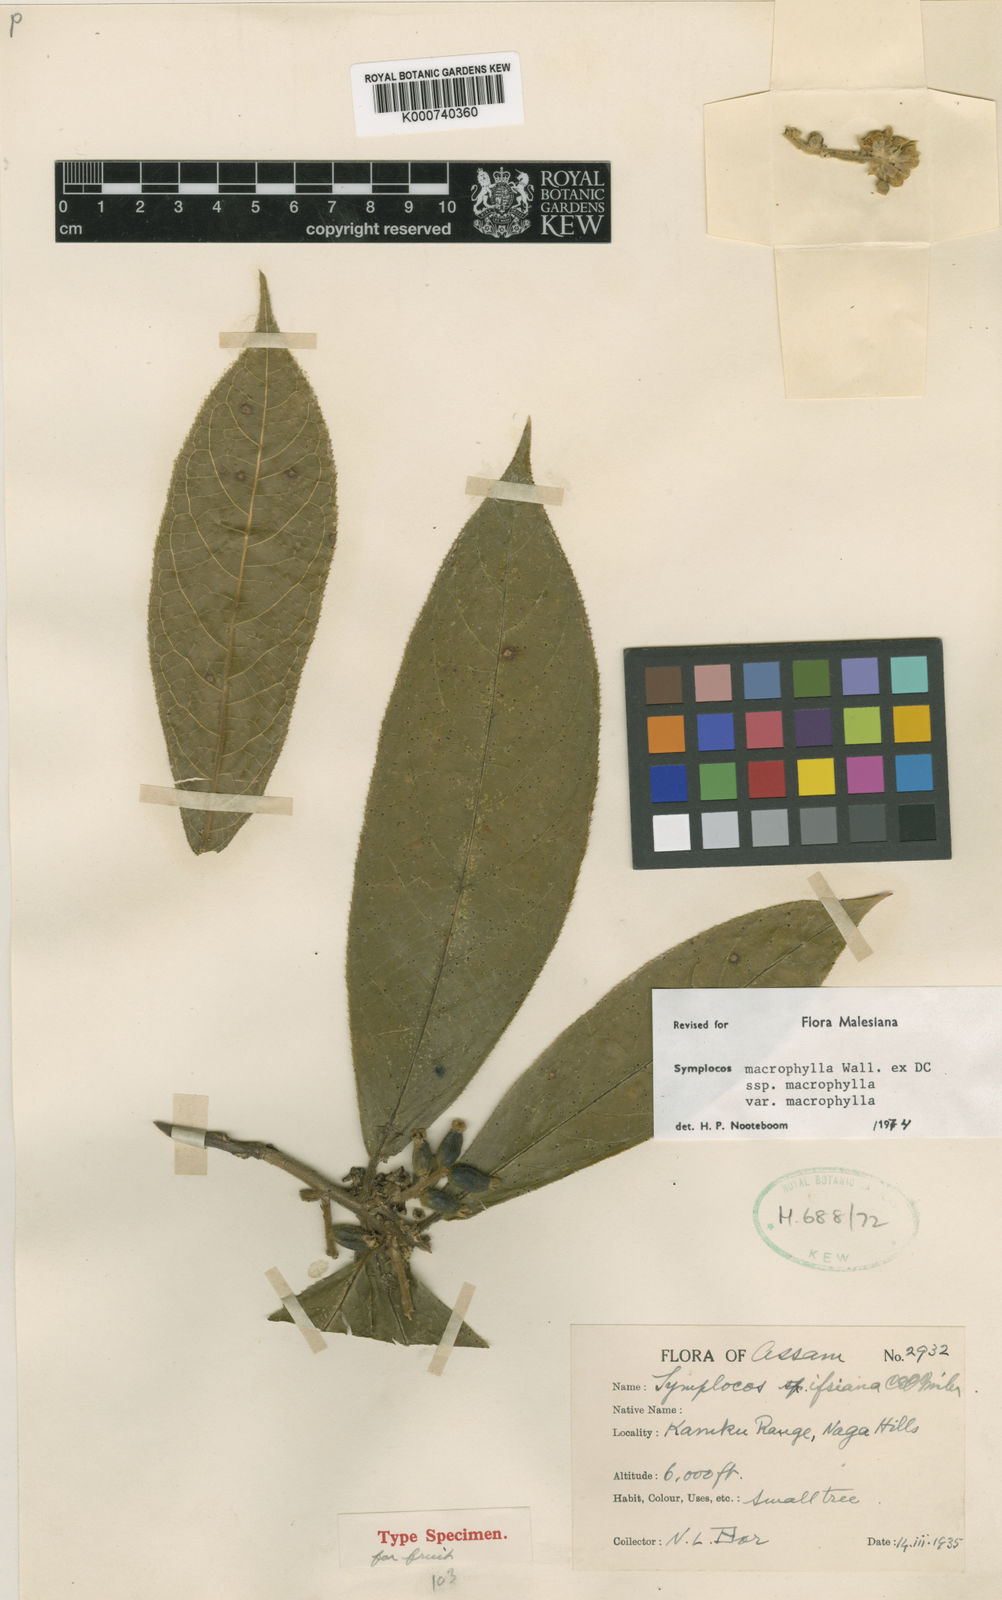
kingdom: Plantae
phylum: Tracheophyta
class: Magnoliopsida
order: Ericales
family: Symplocaceae
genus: Symplocos
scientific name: Symplocos
